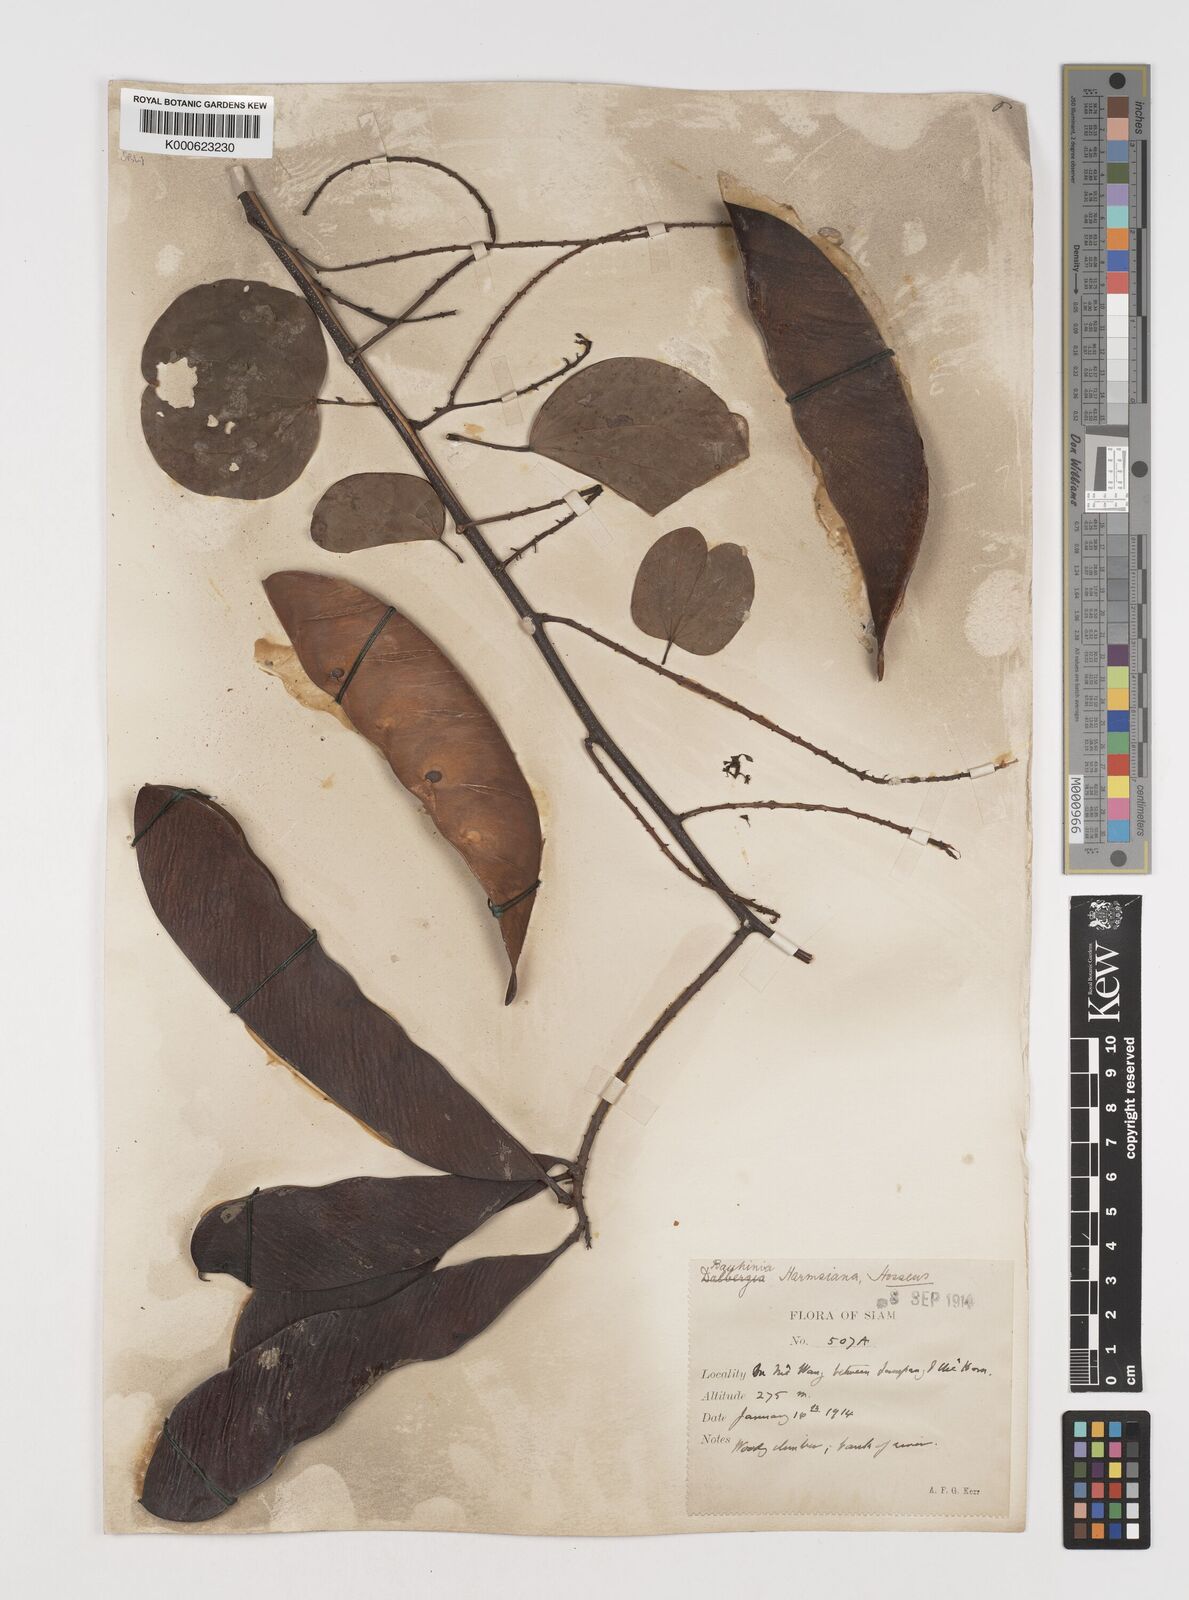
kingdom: Plantae
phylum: Tracheophyta
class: Magnoliopsida
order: Fabales
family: Fabaceae
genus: Phanera
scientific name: Phanera harmsiana
